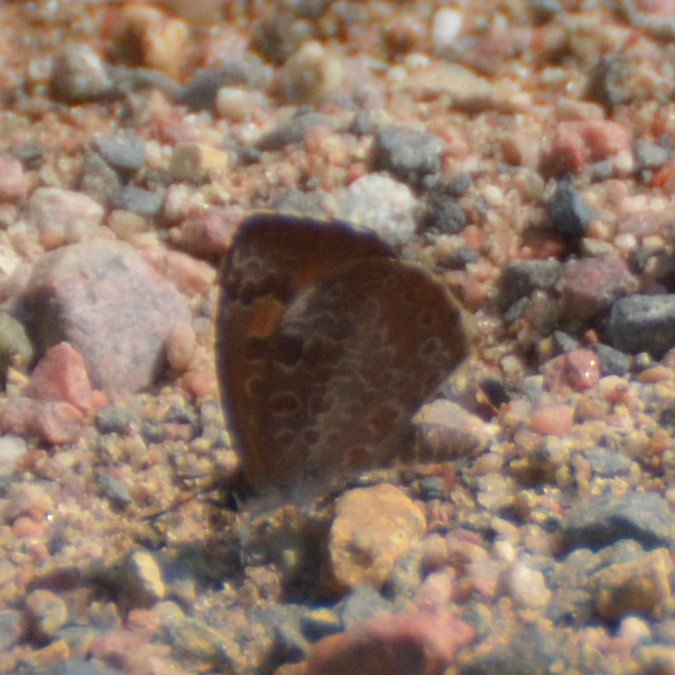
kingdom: Animalia
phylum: Arthropoda
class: Insecta
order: Lepidoptera
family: Lycaenidae
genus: Feniseca
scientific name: Feniseca tarquinius
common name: Harvester
